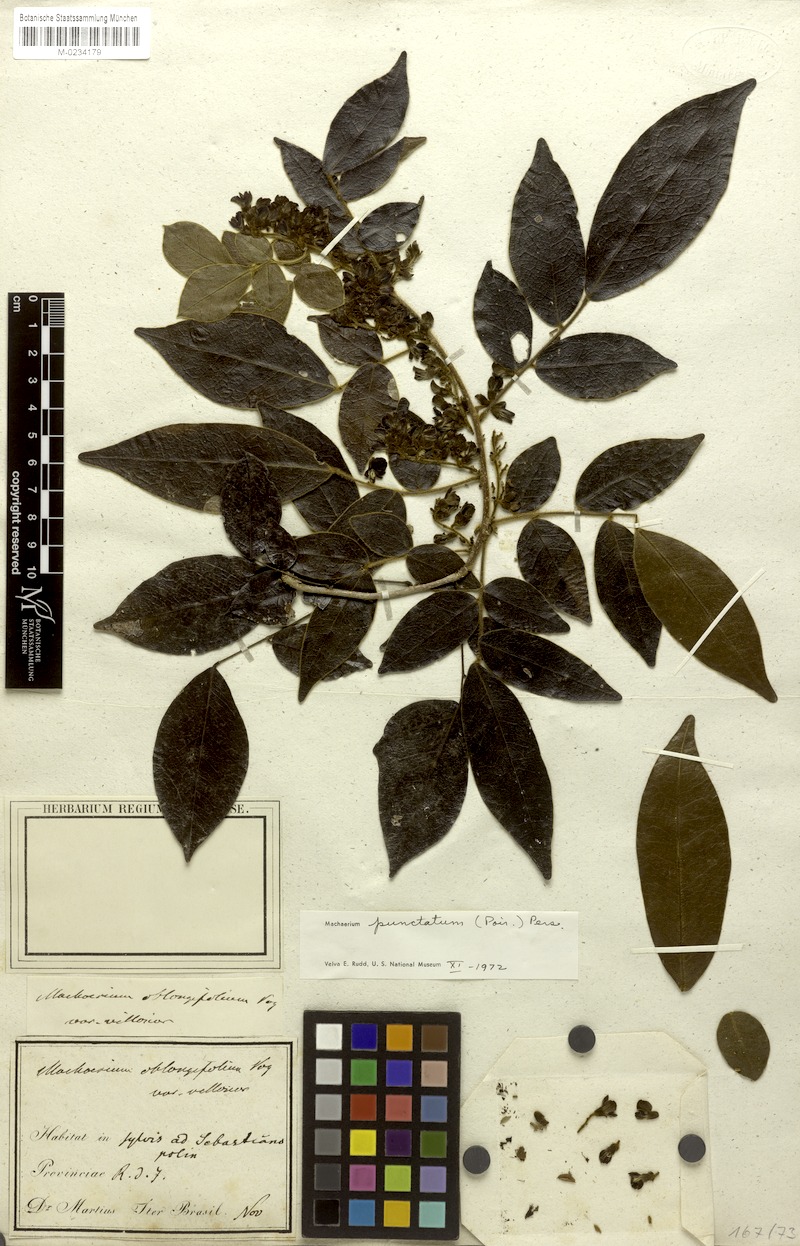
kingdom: Plantae
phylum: Tracheophyta
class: Magnoliopsida
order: Fabales
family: Fabaceae
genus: Machaerium
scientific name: Machaerium punctatum
